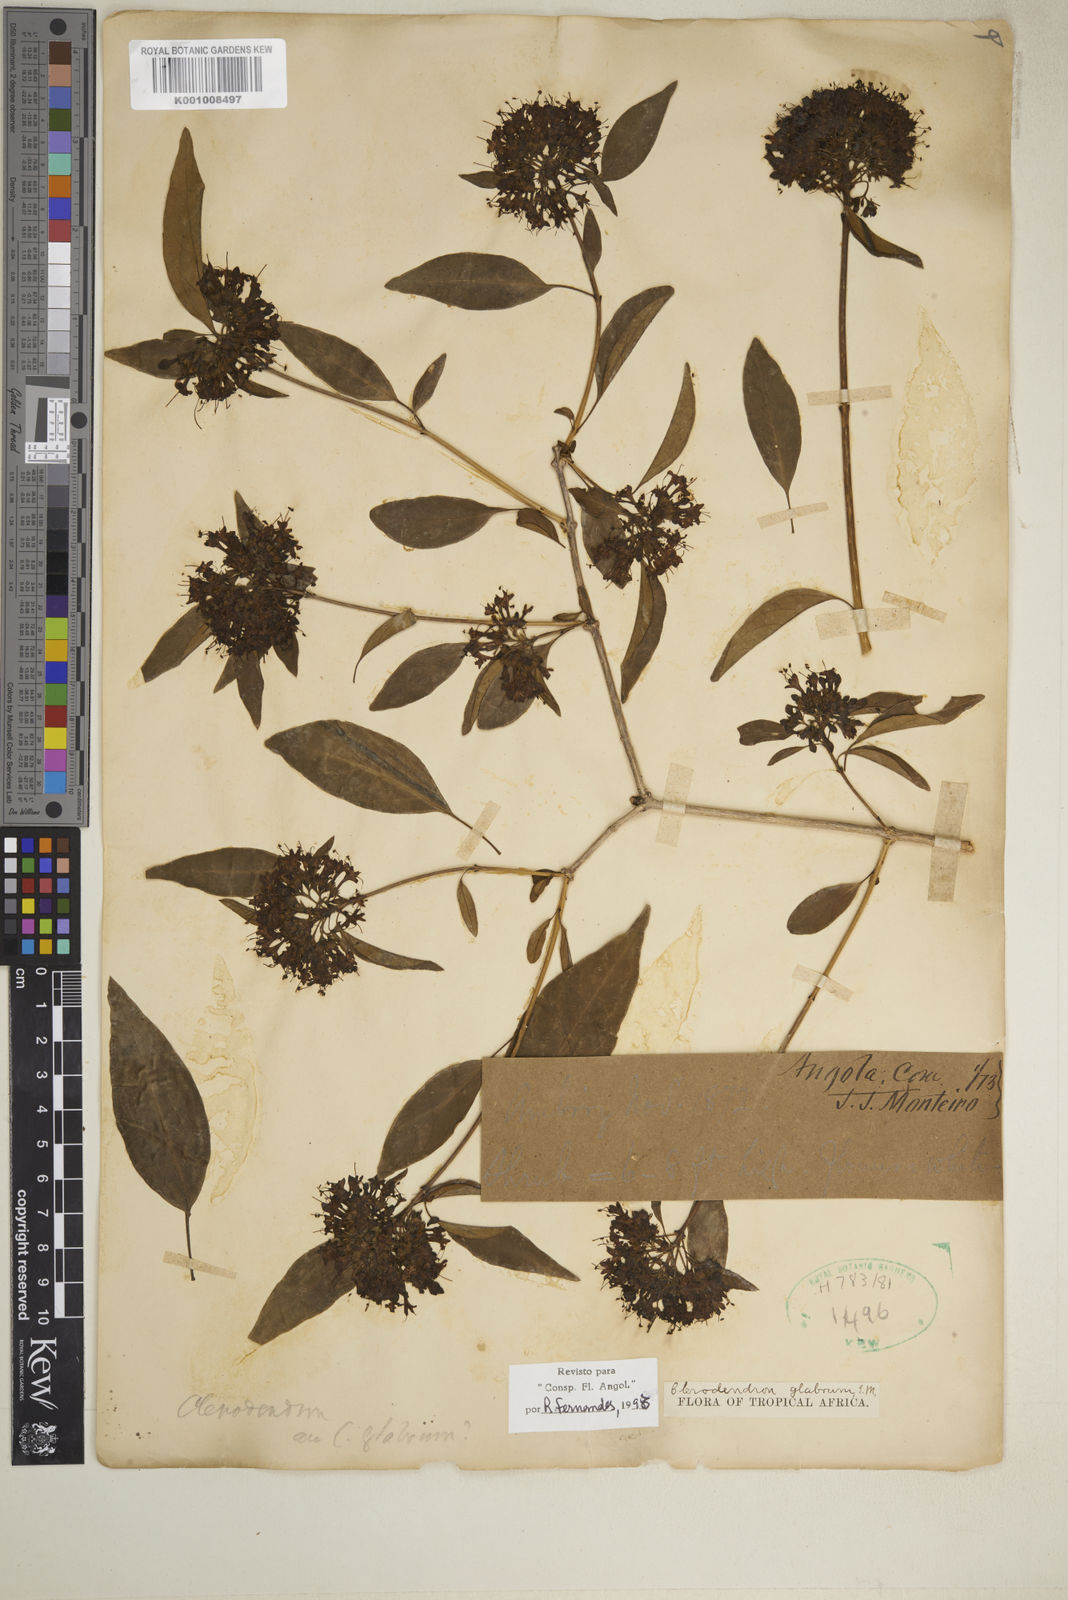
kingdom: Plantae
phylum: Tracheophyta
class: Magnoliopsida
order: Lamiales
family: Lamiaceae
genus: Volkameria
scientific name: Volkameria glabra
